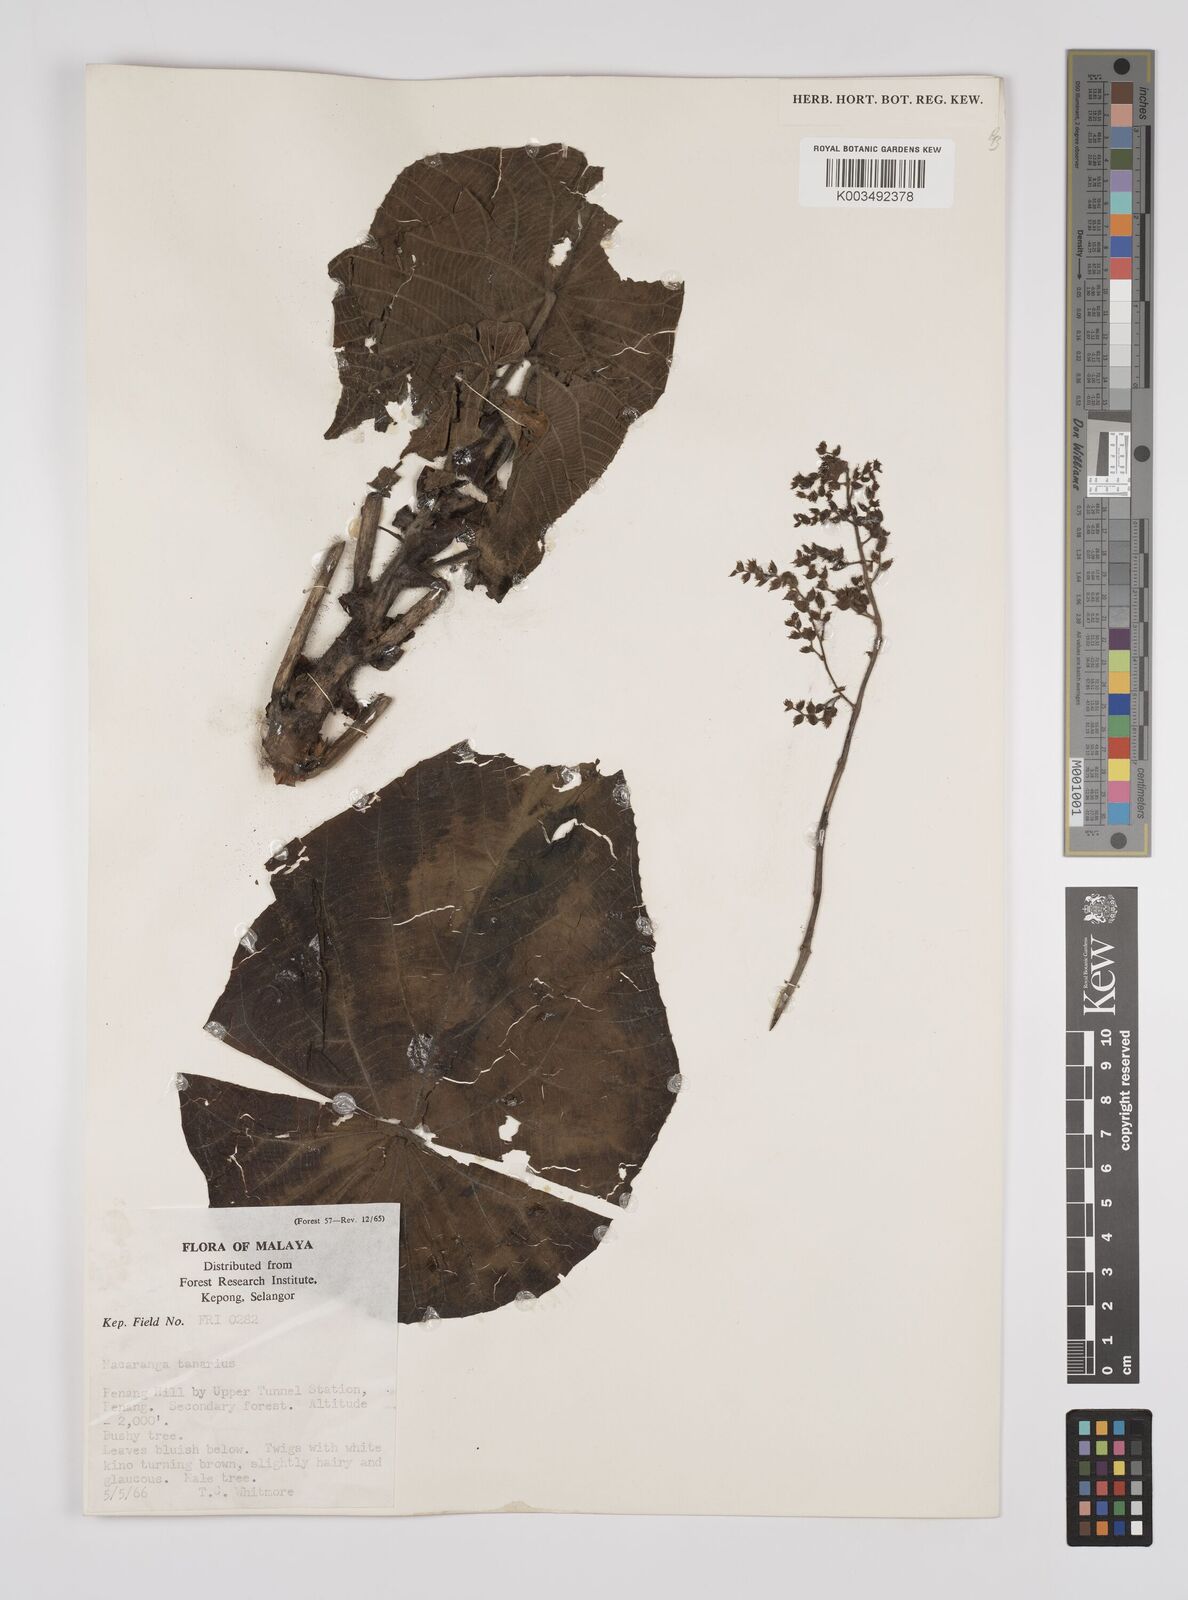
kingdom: Plantae
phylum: Tracheophyta
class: Magnoliopsida
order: Malpighiales
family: Euphorbiaceae
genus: Macaranga
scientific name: Macaranga tanarius
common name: Parasol leaf tree
